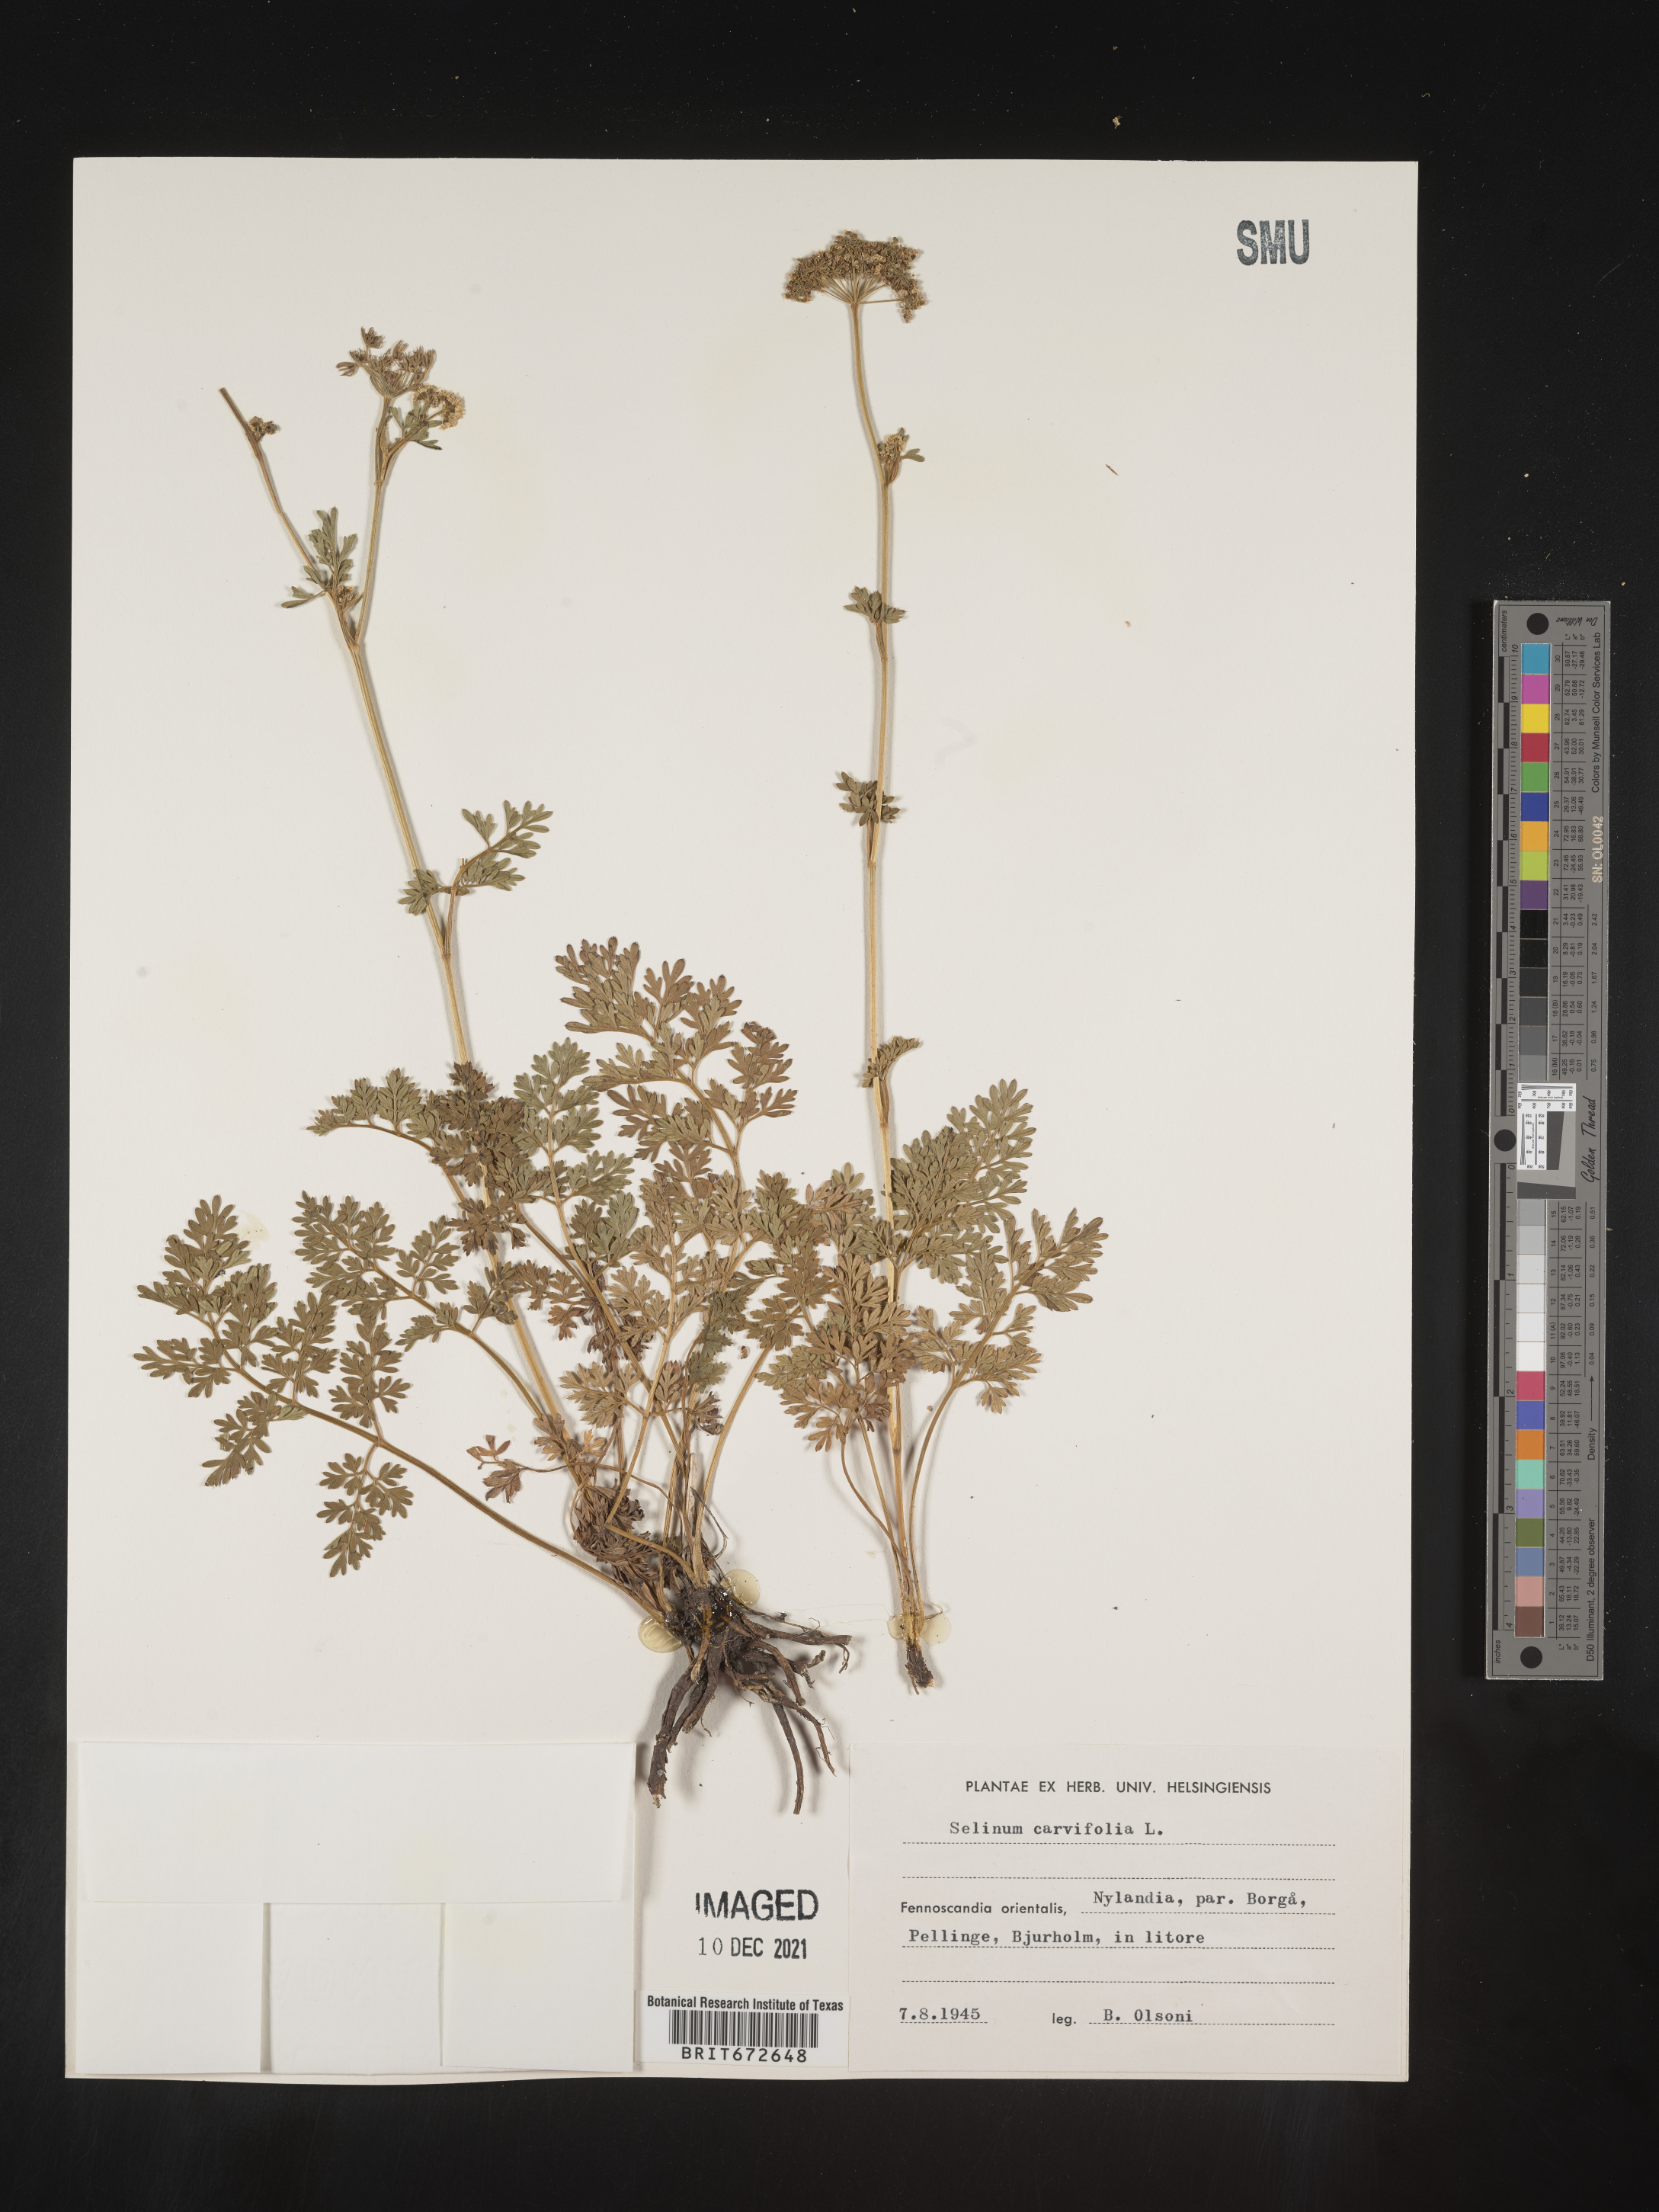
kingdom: Plantae
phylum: Tracheophyta
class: Magnoliopsida
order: Apiales
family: Apiaceae
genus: Selinum
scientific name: Selinum
